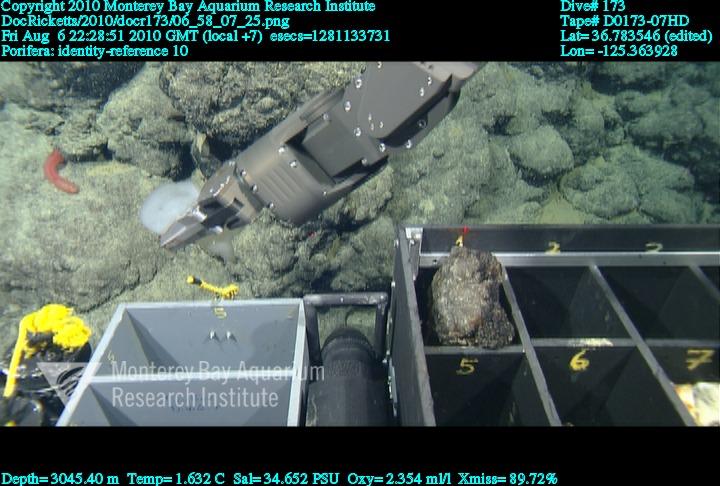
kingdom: Animalia
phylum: Porifera
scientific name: Porifera
